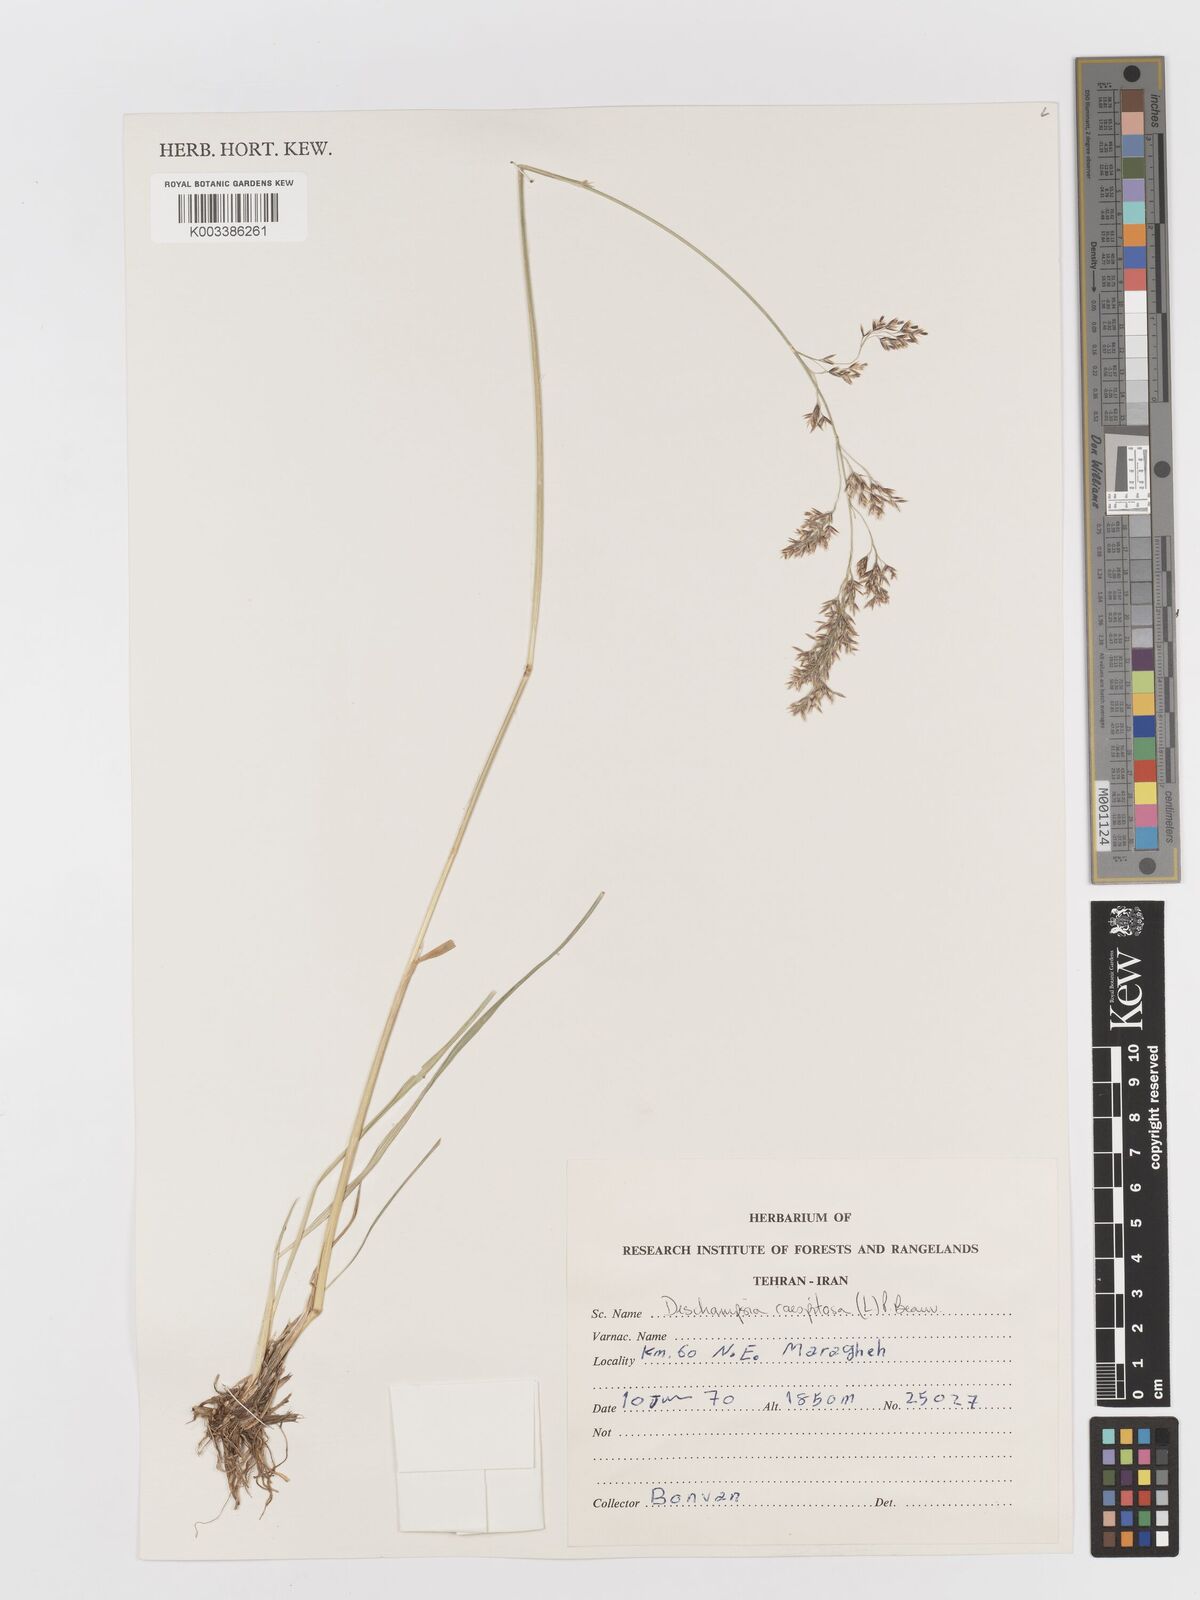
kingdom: Plantae
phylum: Tracheophyta
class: Liliopsida
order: Poales
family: Poaceae
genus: Deschampsia
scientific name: Deschampsia cespitosa
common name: Tufted hair-grass
